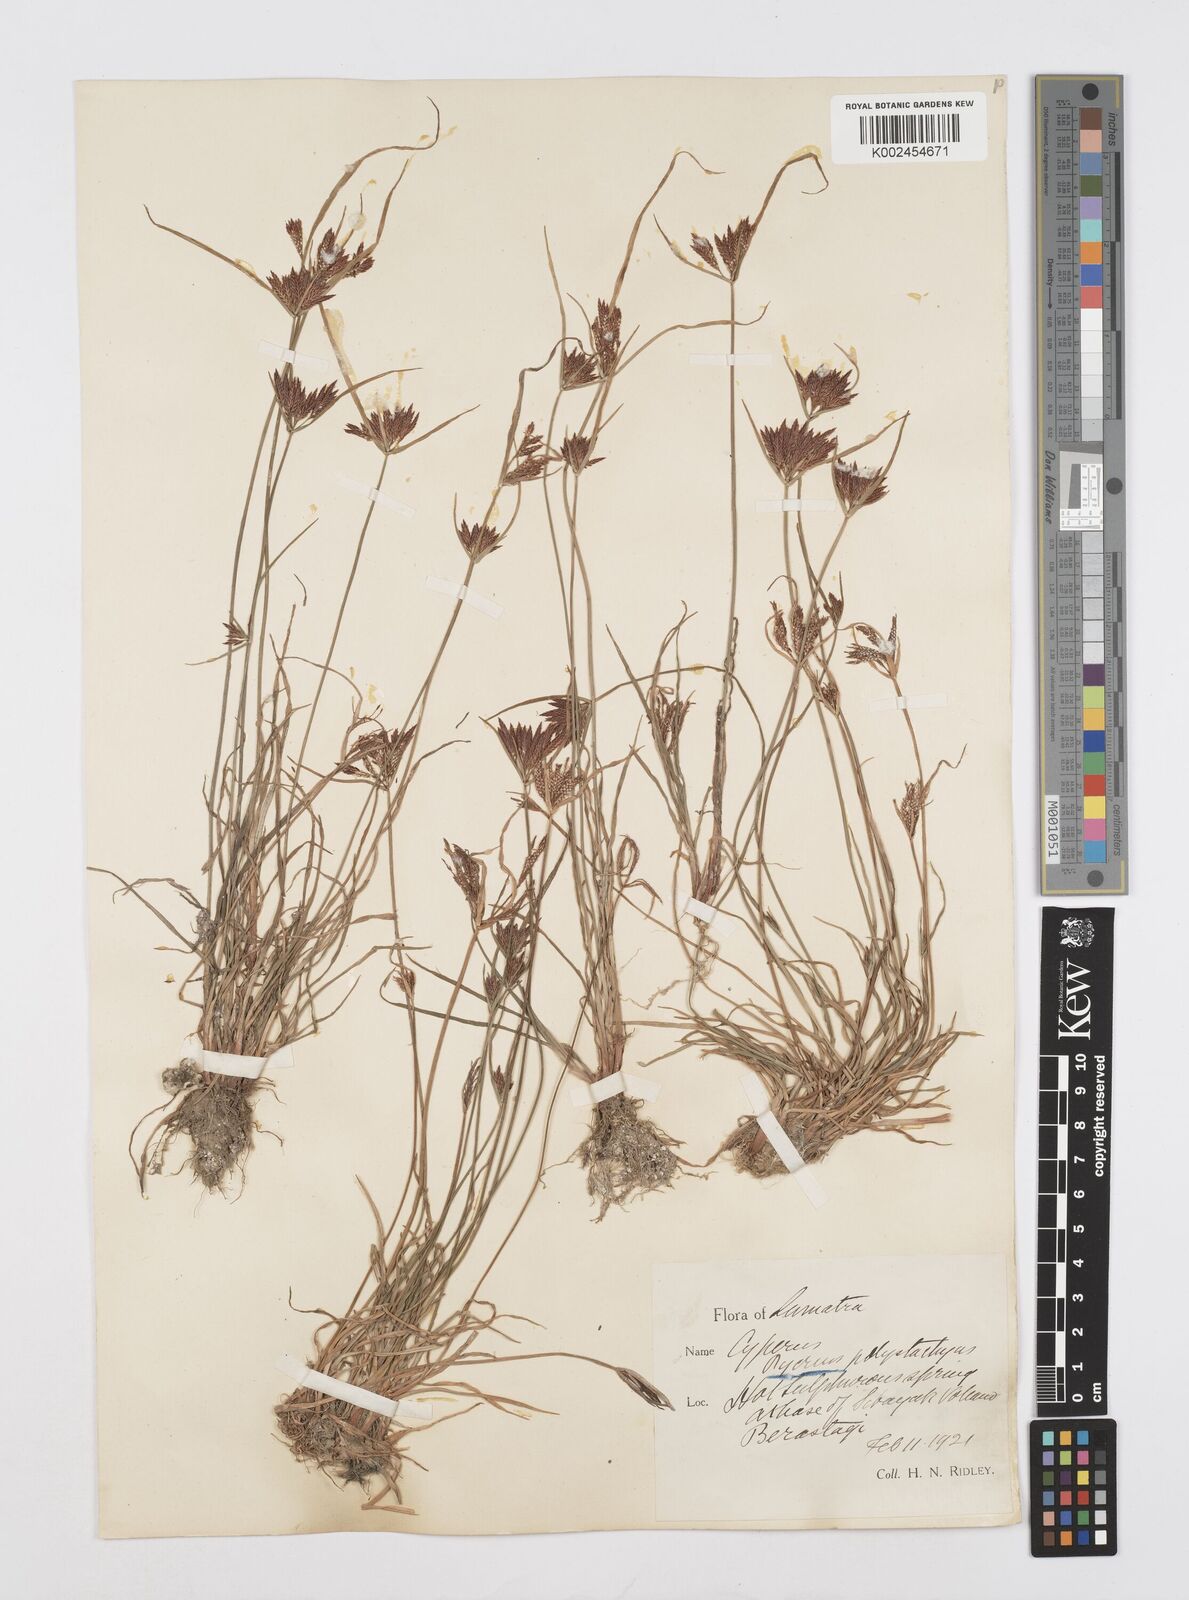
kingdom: Plantae
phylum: Tracheophyta
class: Liliopsida
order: Poales
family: Cyperaceae
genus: Cyperus
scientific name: Cyperus polystachyos
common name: Bunchy flat sedge
